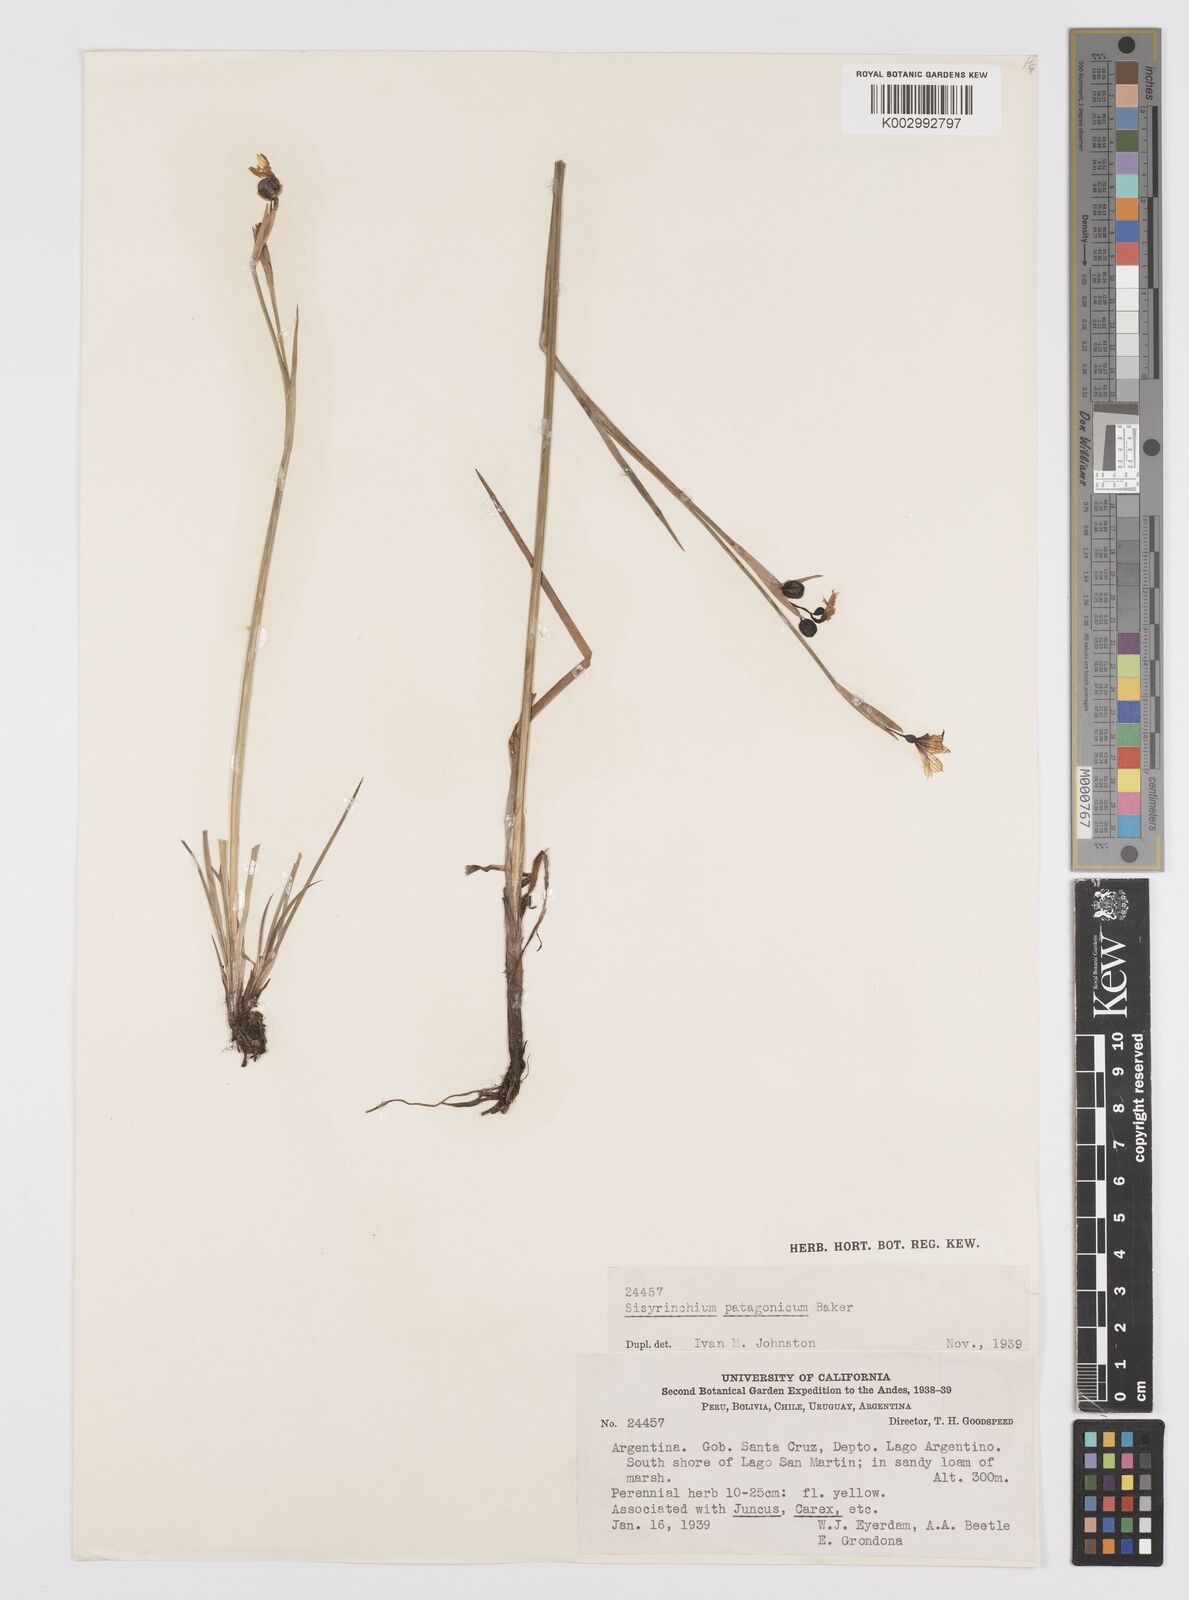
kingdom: Plantae
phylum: Tracheophyta
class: Liliopsida
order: Asparagales
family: Iridaceae
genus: Sisyrinchium
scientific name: Sisyrinchium patagonicum
